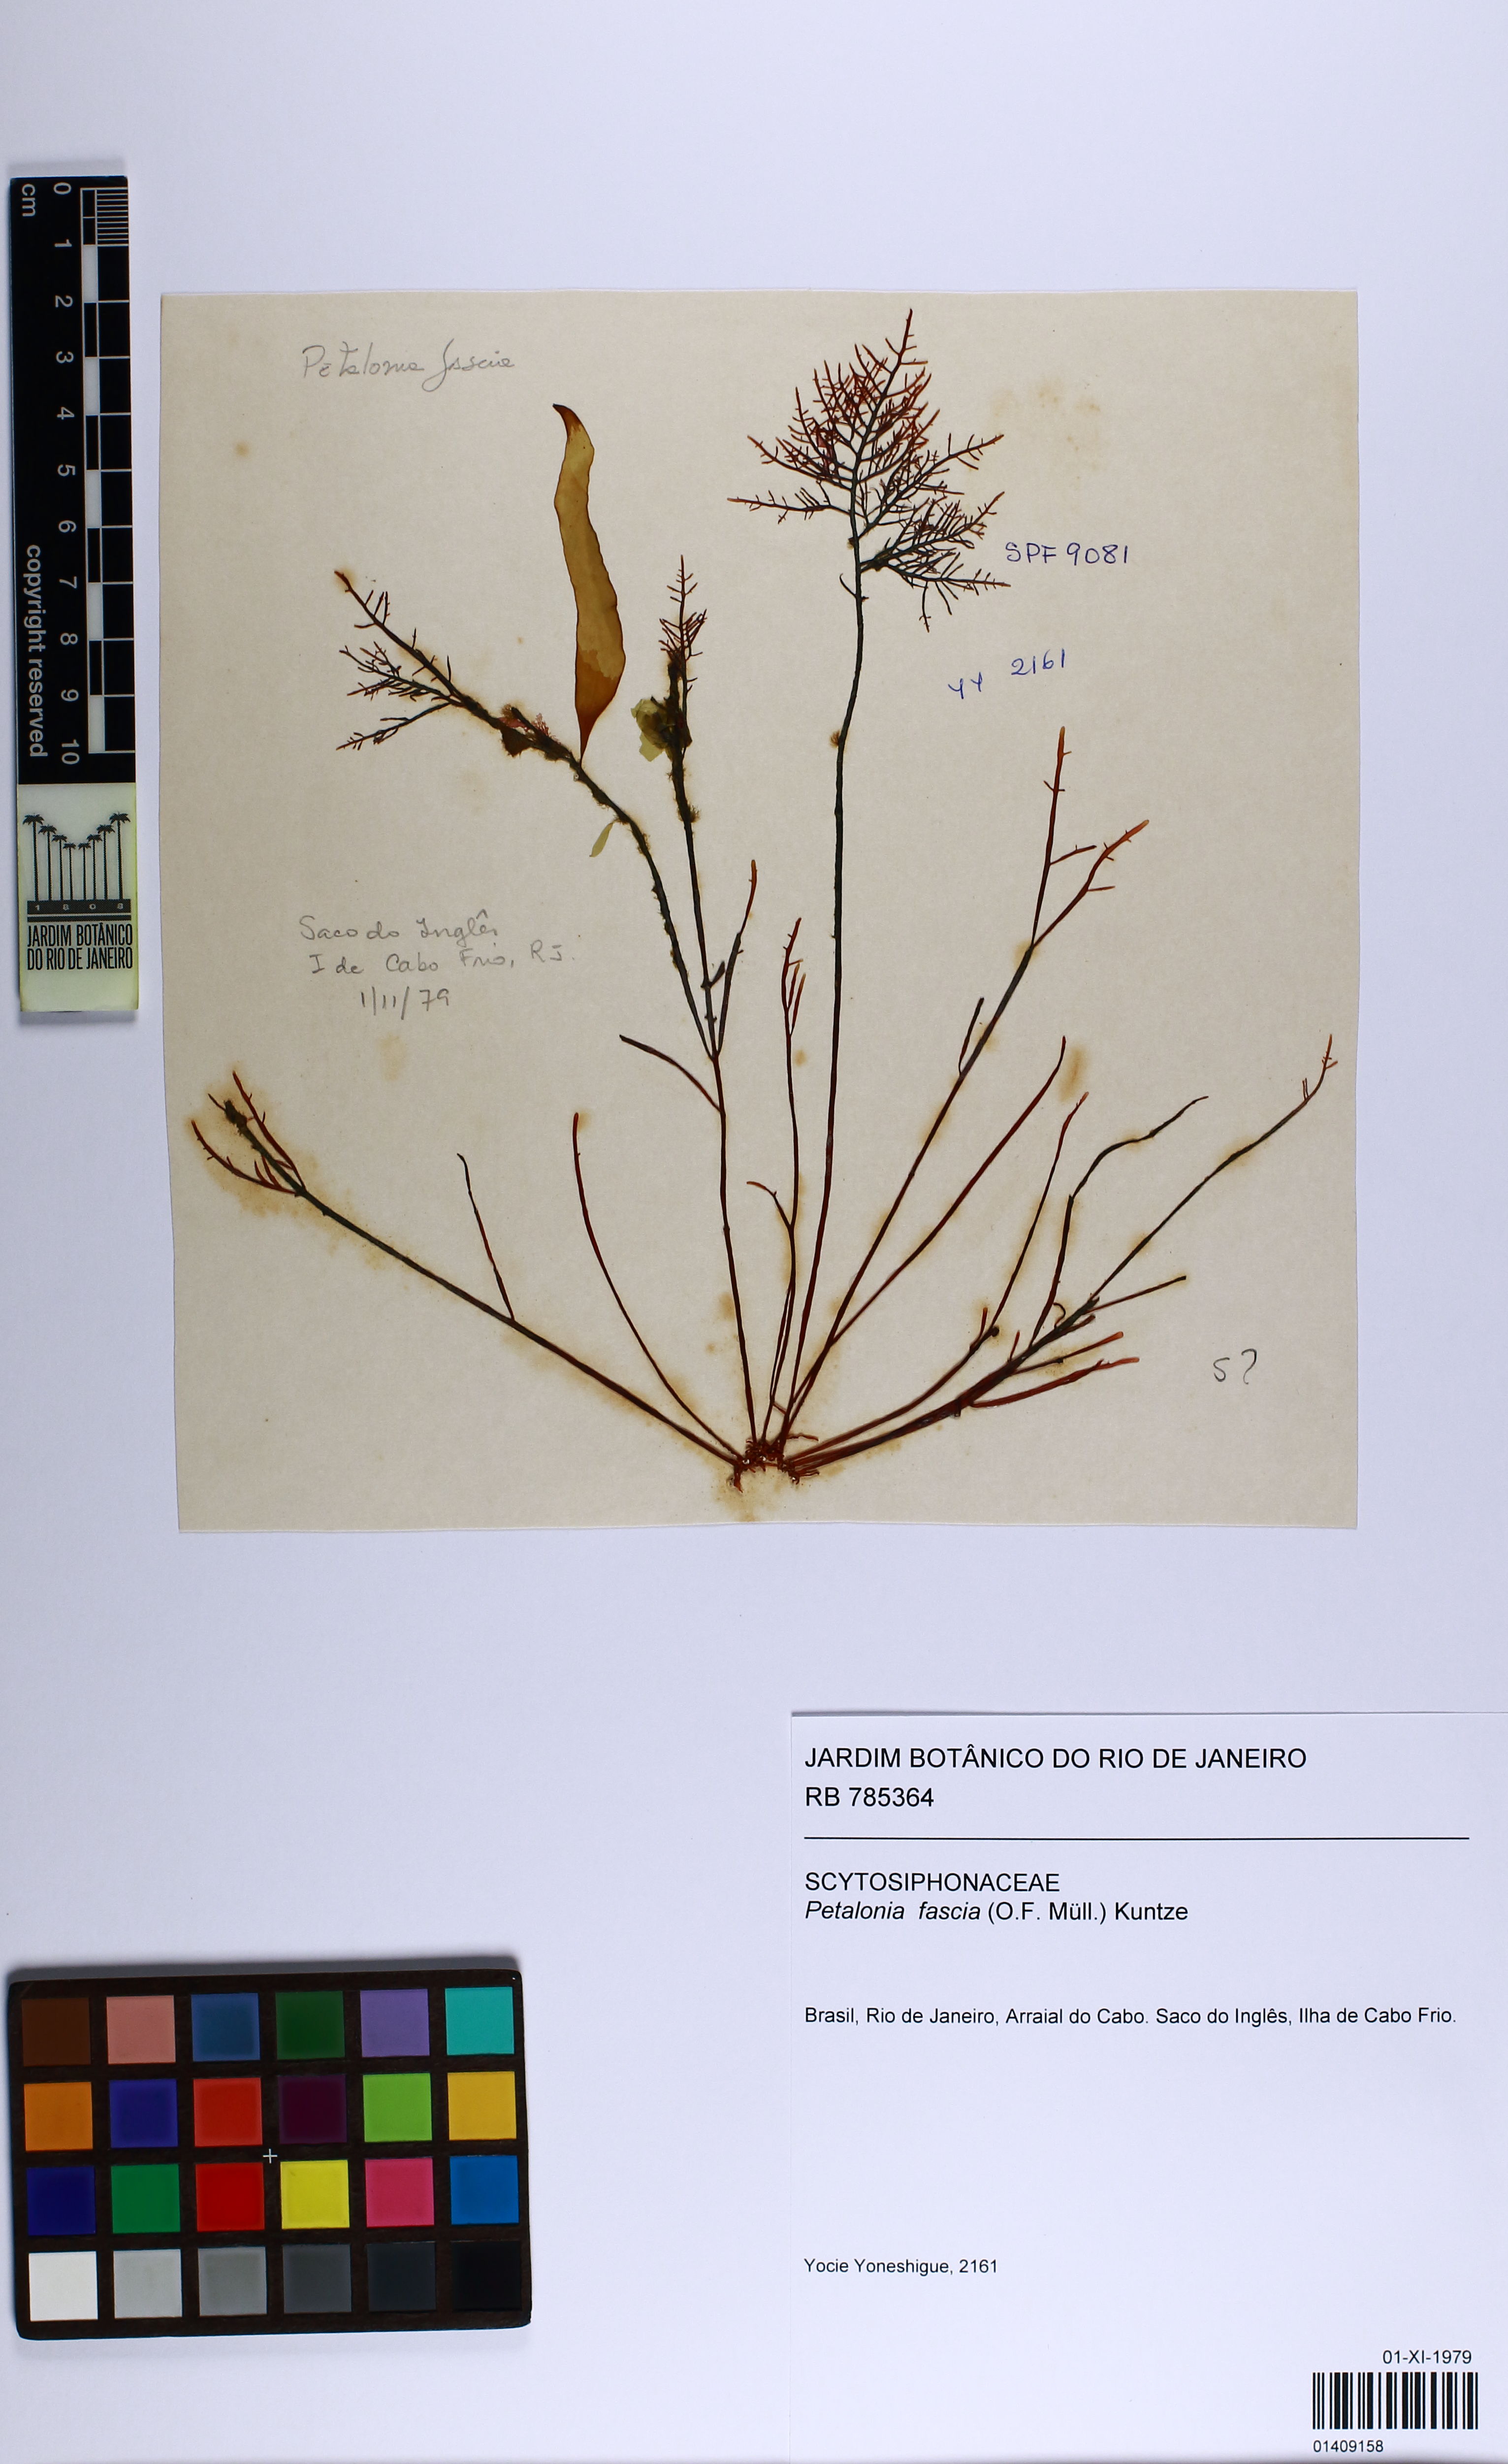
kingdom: Chromista
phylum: Ochrophyta
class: Phaeophyceae
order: Scytosiphonales
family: Scytosiphonaceae
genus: Petalonia
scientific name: Petalonia fascia
